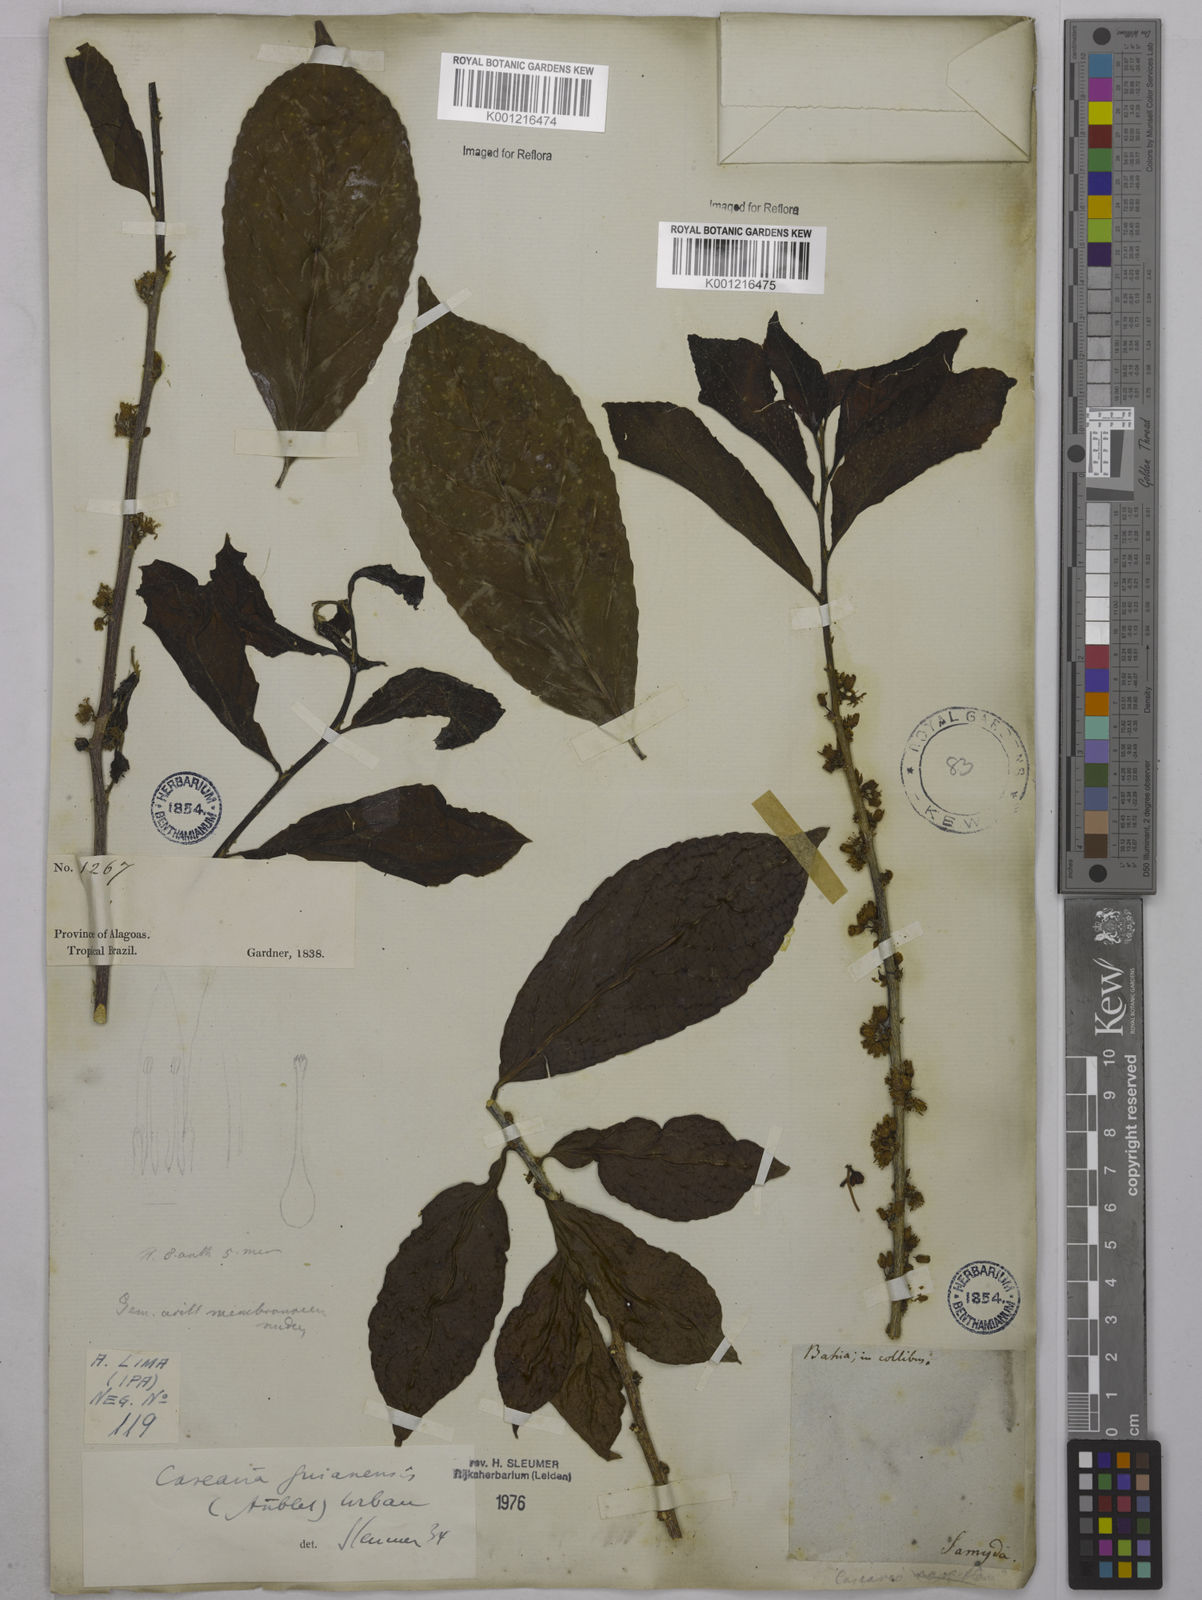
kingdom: Plantae
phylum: Tracheophyta
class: Magnoliopsida
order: Malpighiales
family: Salicaceae
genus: Casearia
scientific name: Casearia guianensis
